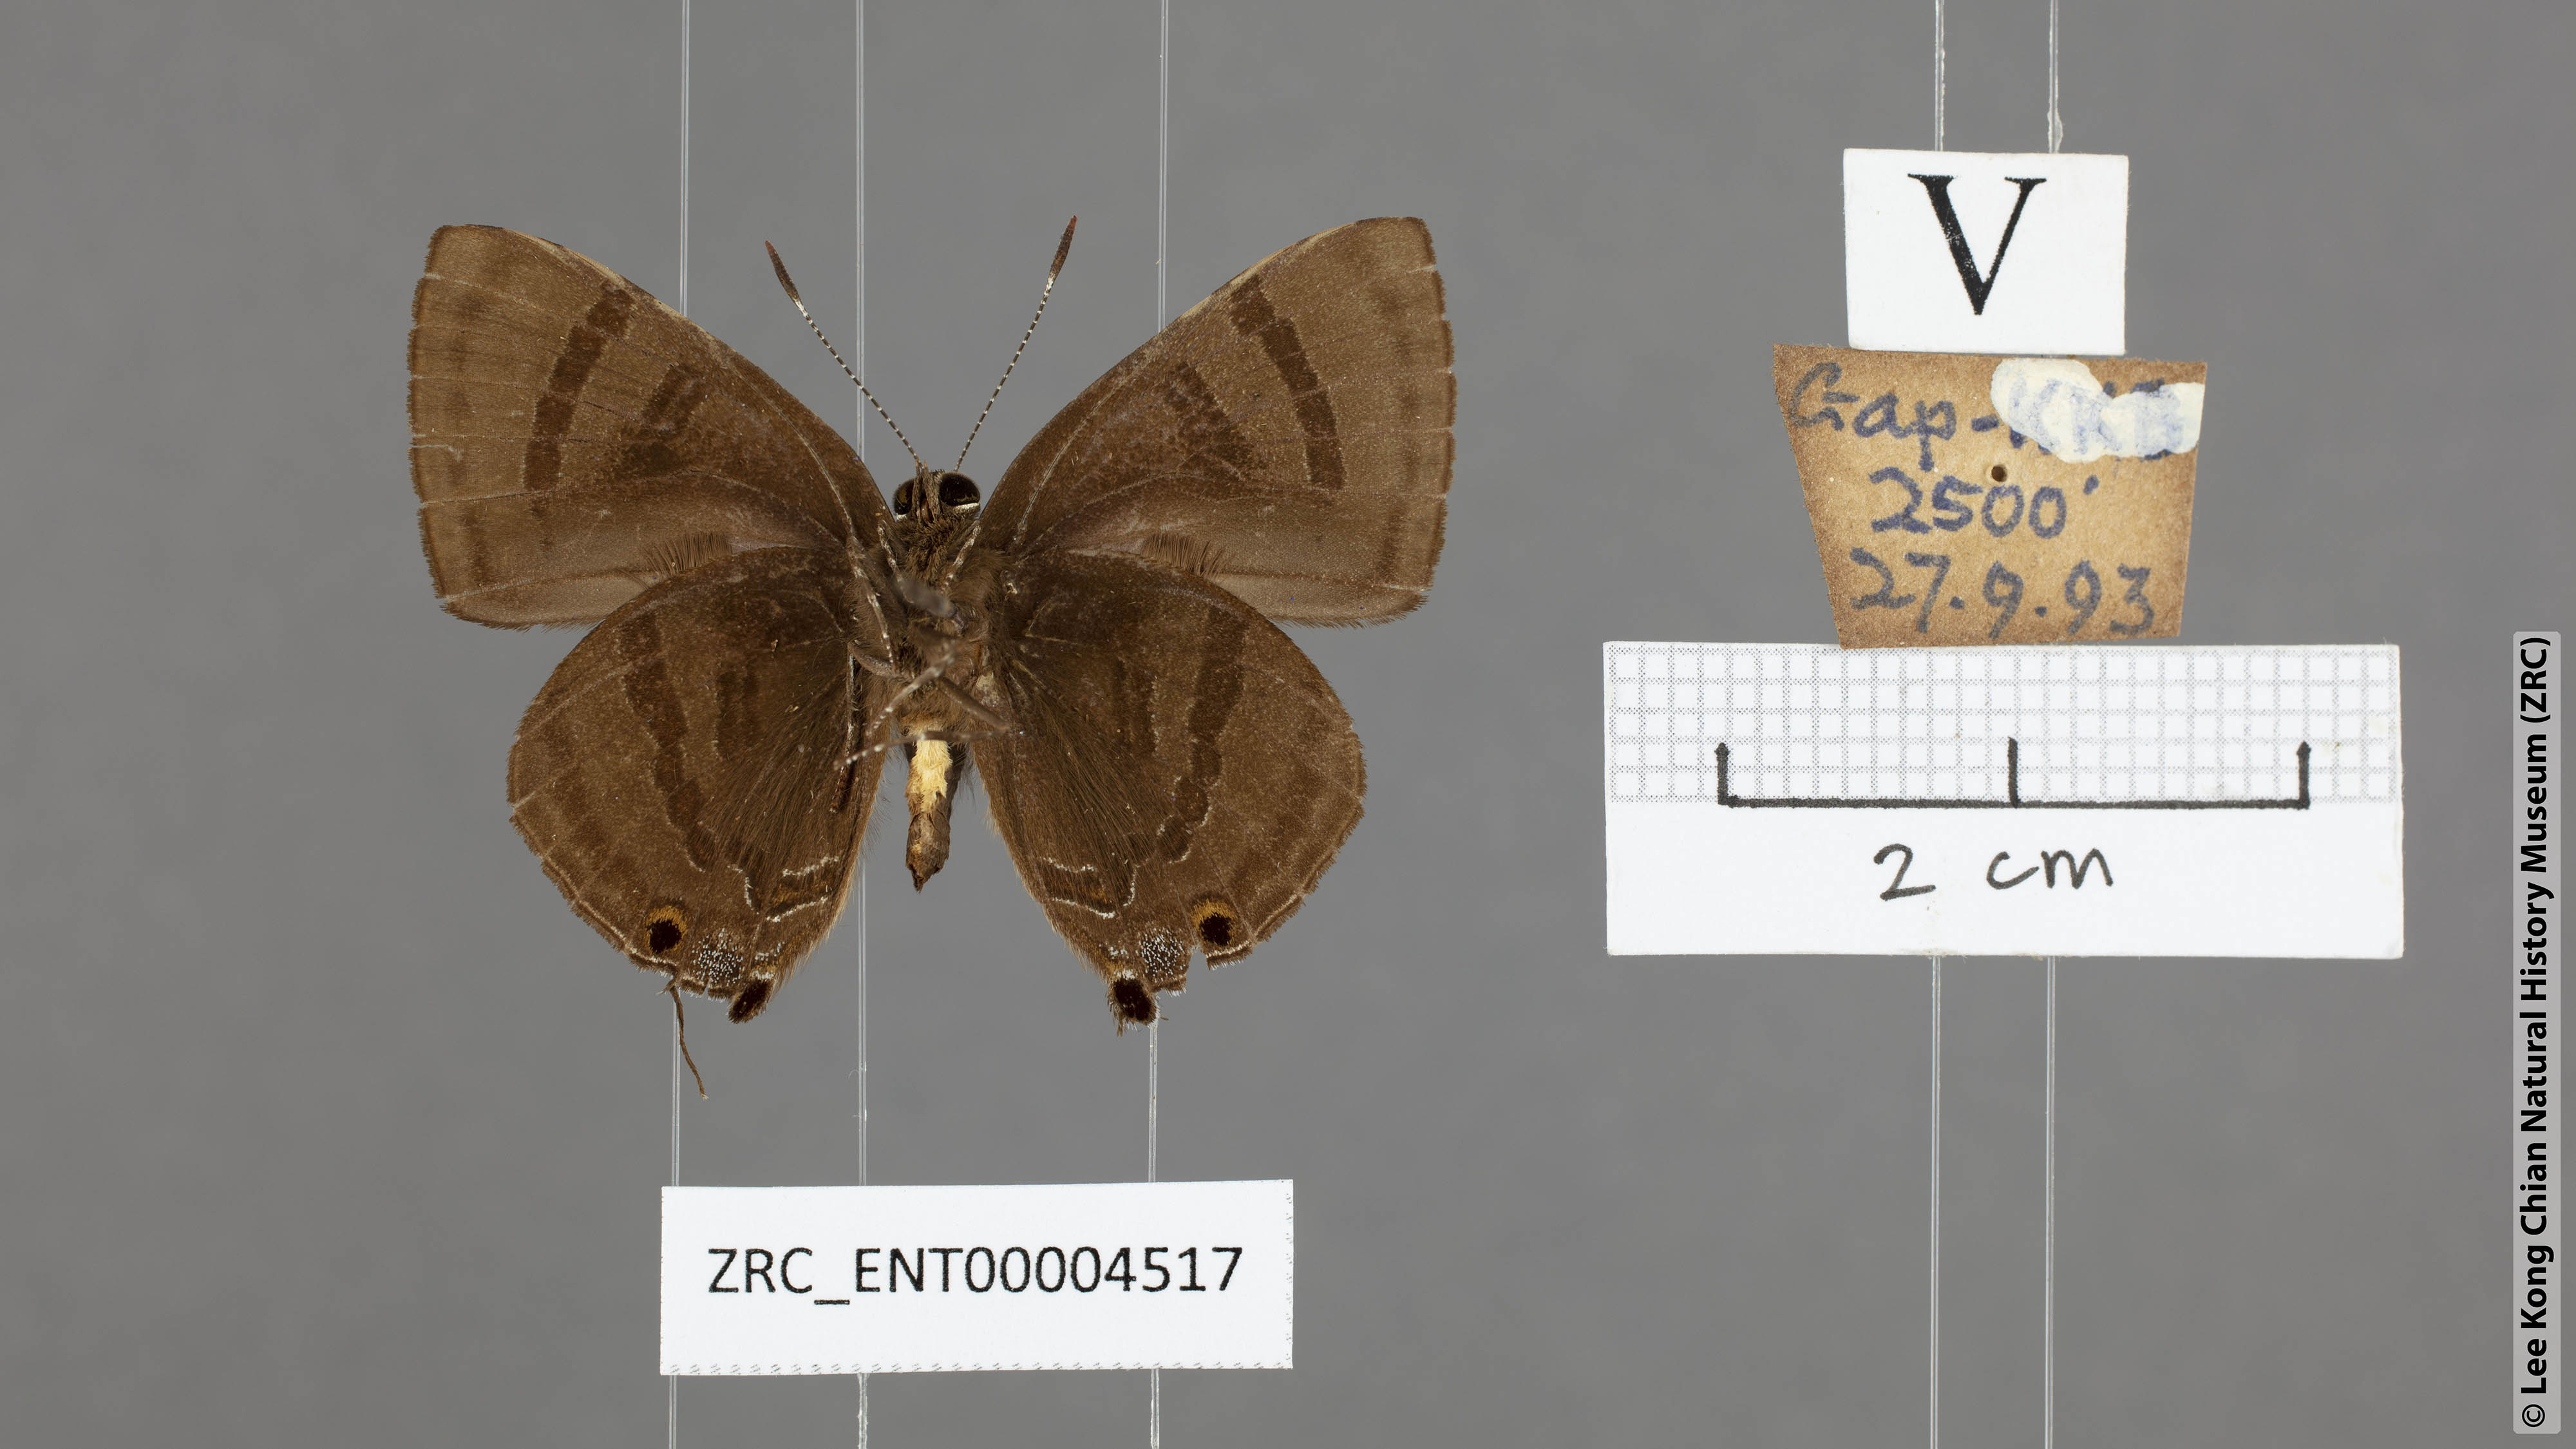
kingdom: Animalia
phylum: Arthropoda
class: Insecta
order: Lepidoptera
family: Lycaenidae
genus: Rapala
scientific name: Rapala rhoecus
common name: Brilliant flash
